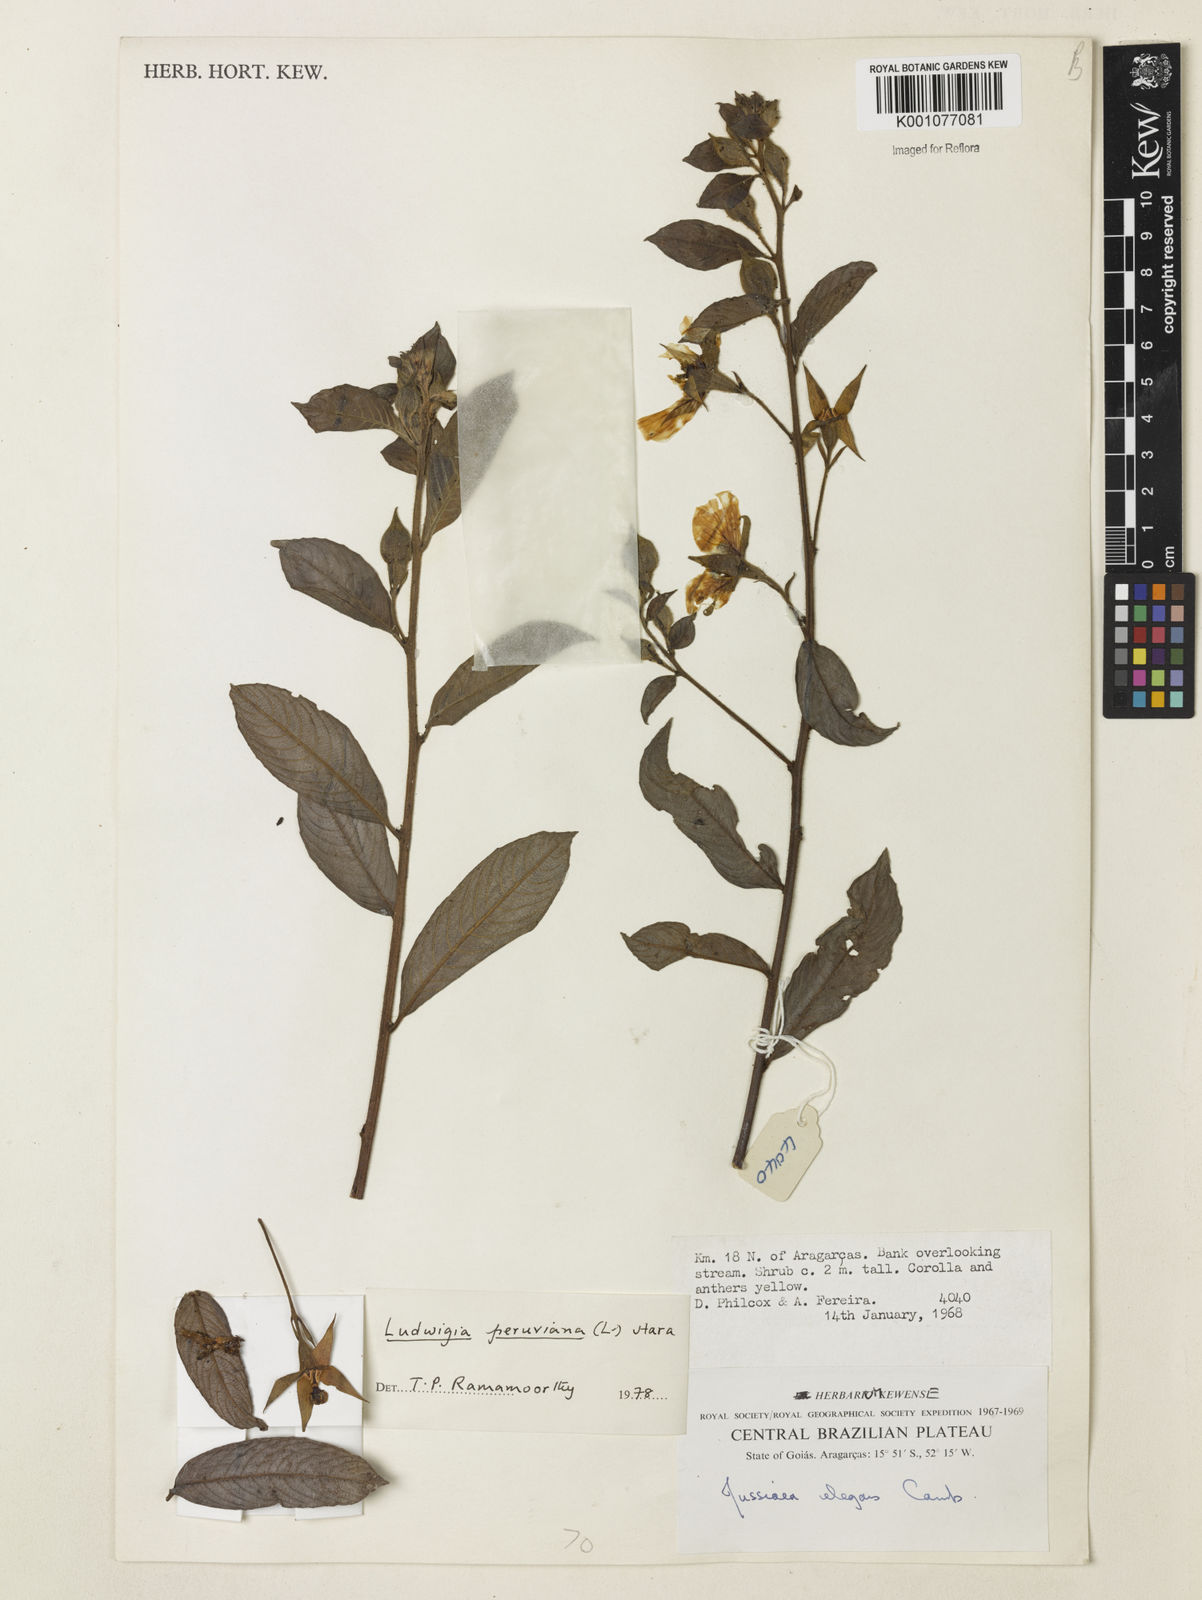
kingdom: Plantae
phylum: Tracheophyta
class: Magnoliopsida
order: Myrtales
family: Onagraceae
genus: Ludwigia
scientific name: Ludwigia peruviana
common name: Peruvian primrose-willow
